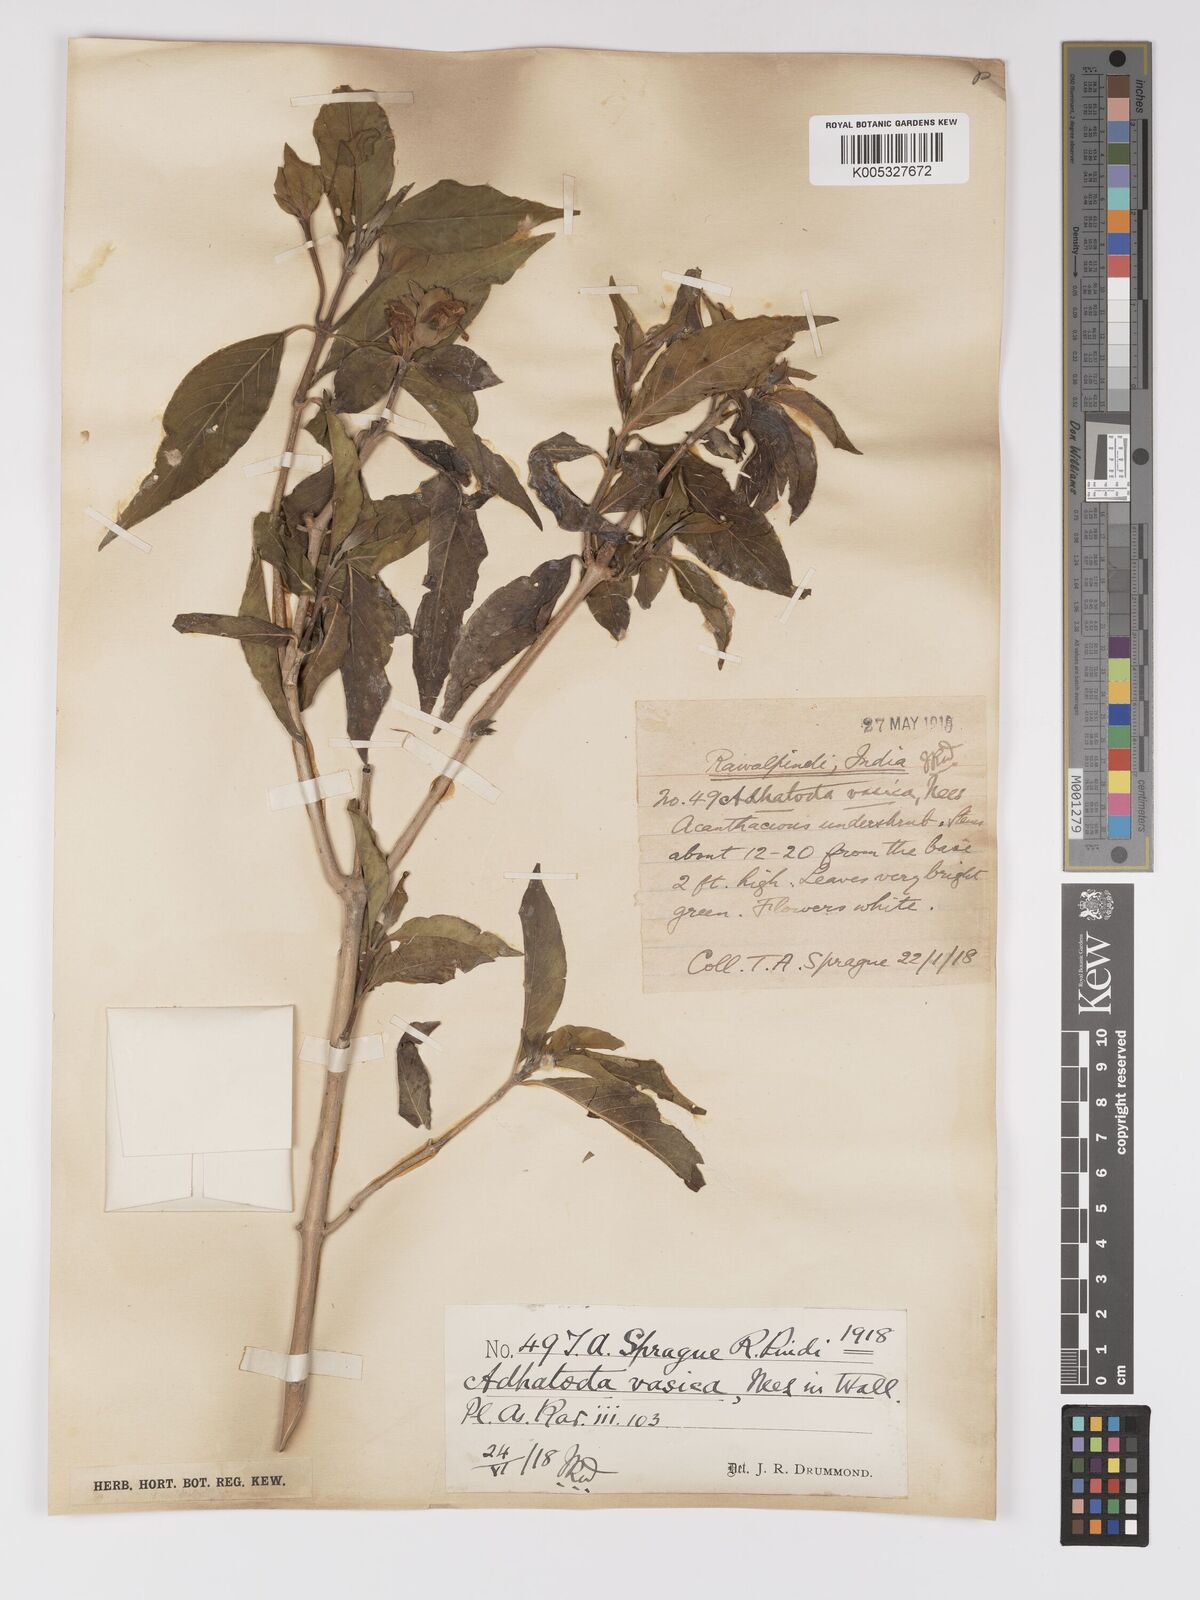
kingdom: Plantae
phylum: Tracheophyta
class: Magnoliopsida
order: Lamiales
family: Acanthaceae
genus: Ecbolium
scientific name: Ecbolium ligustrinum
